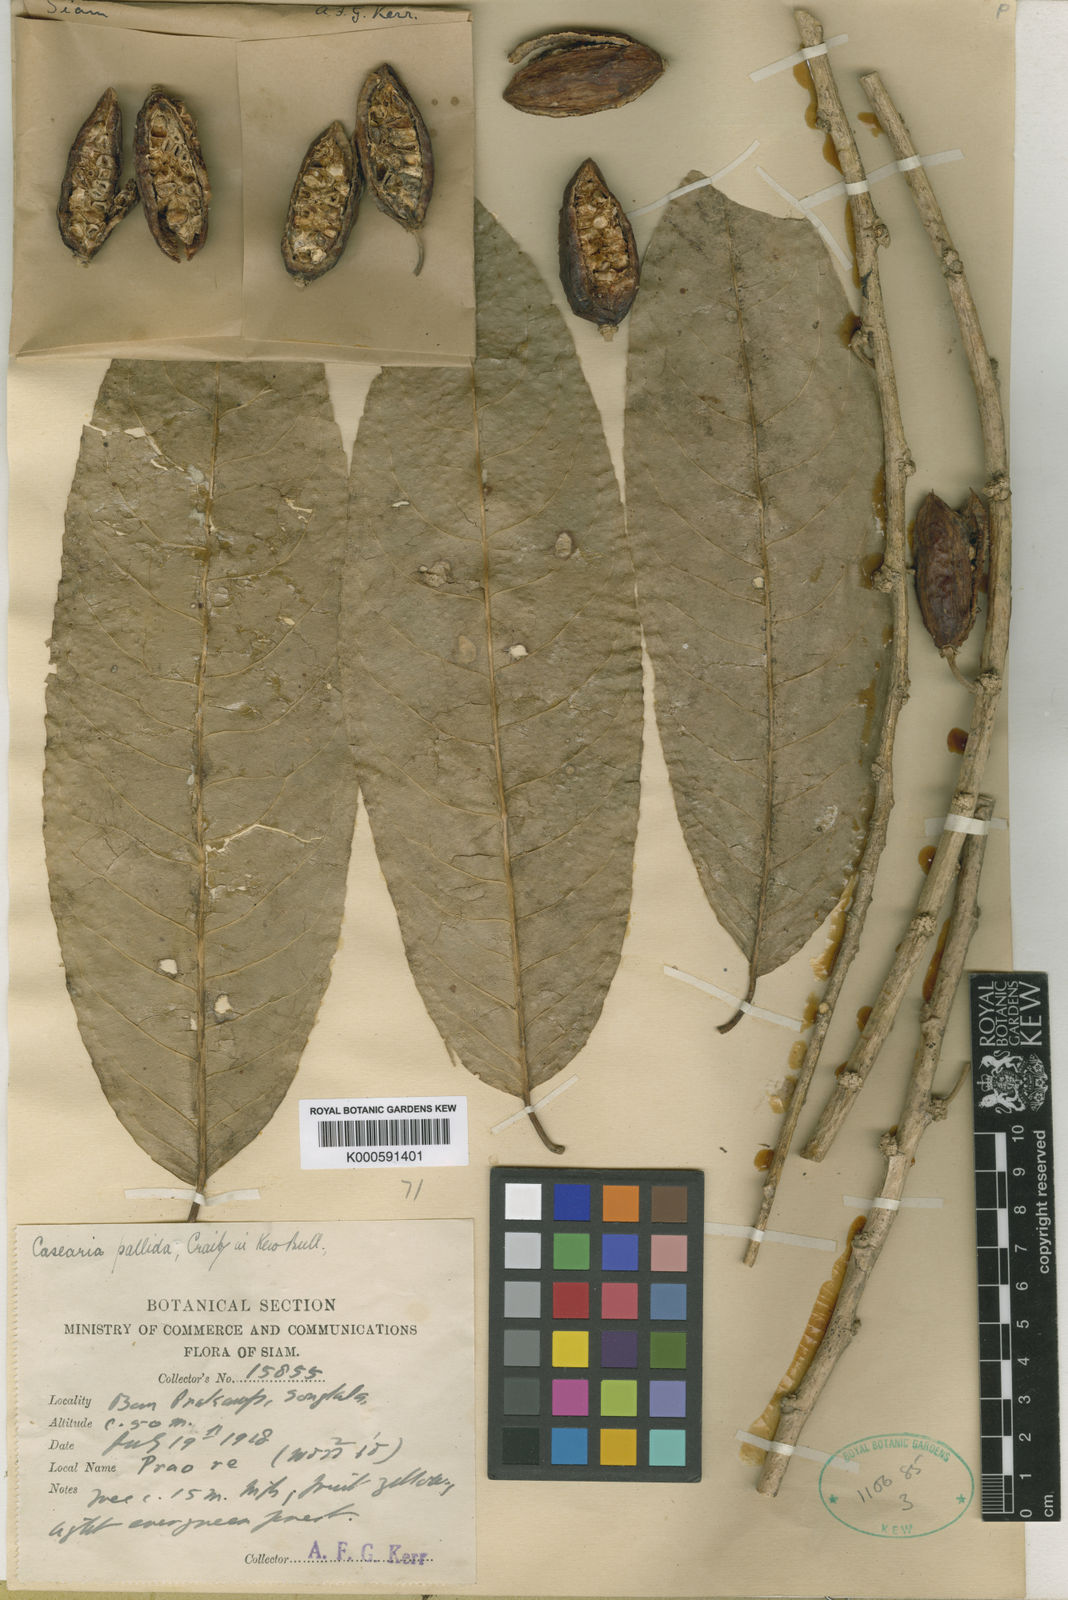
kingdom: Plantae
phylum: Tracheophyta
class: Magnoliopsida
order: Malpighiales
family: Salicaceae
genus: Casearia
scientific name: Casearia flavovirens
